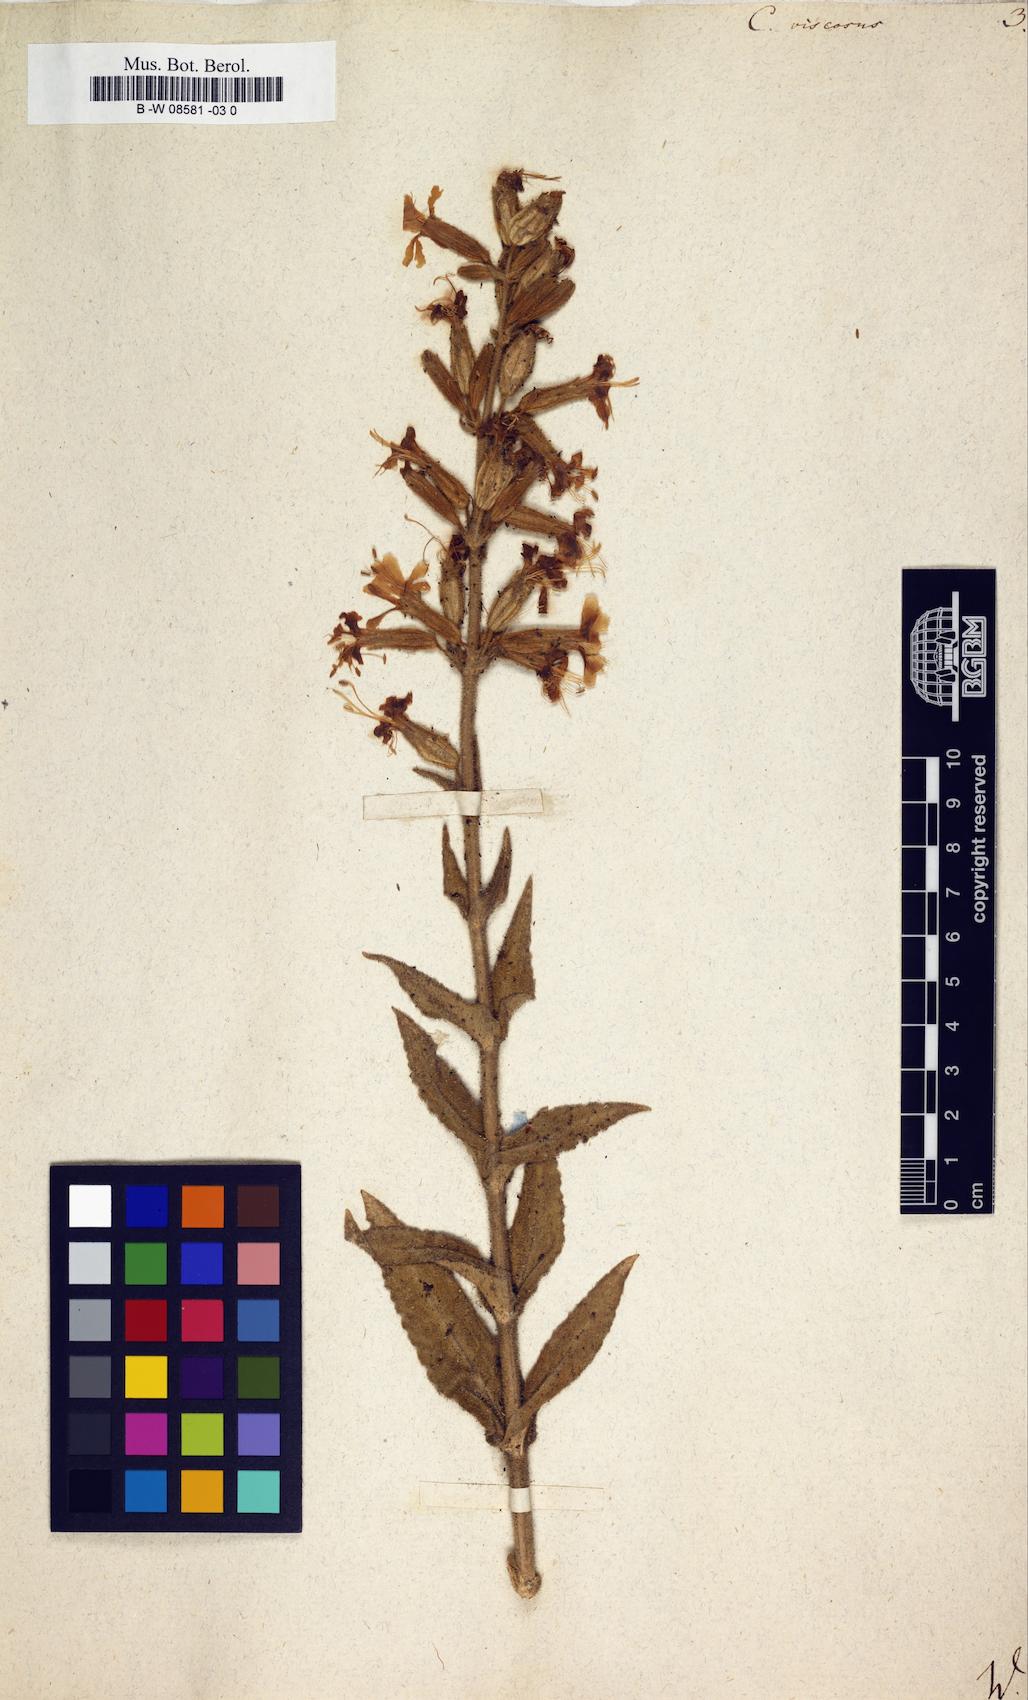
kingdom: Plantae
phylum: Tracheophyta
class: Magnoliopsida
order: Caryophyllales
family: Caryophyllaceae
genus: Silene
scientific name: Silene viscosa
